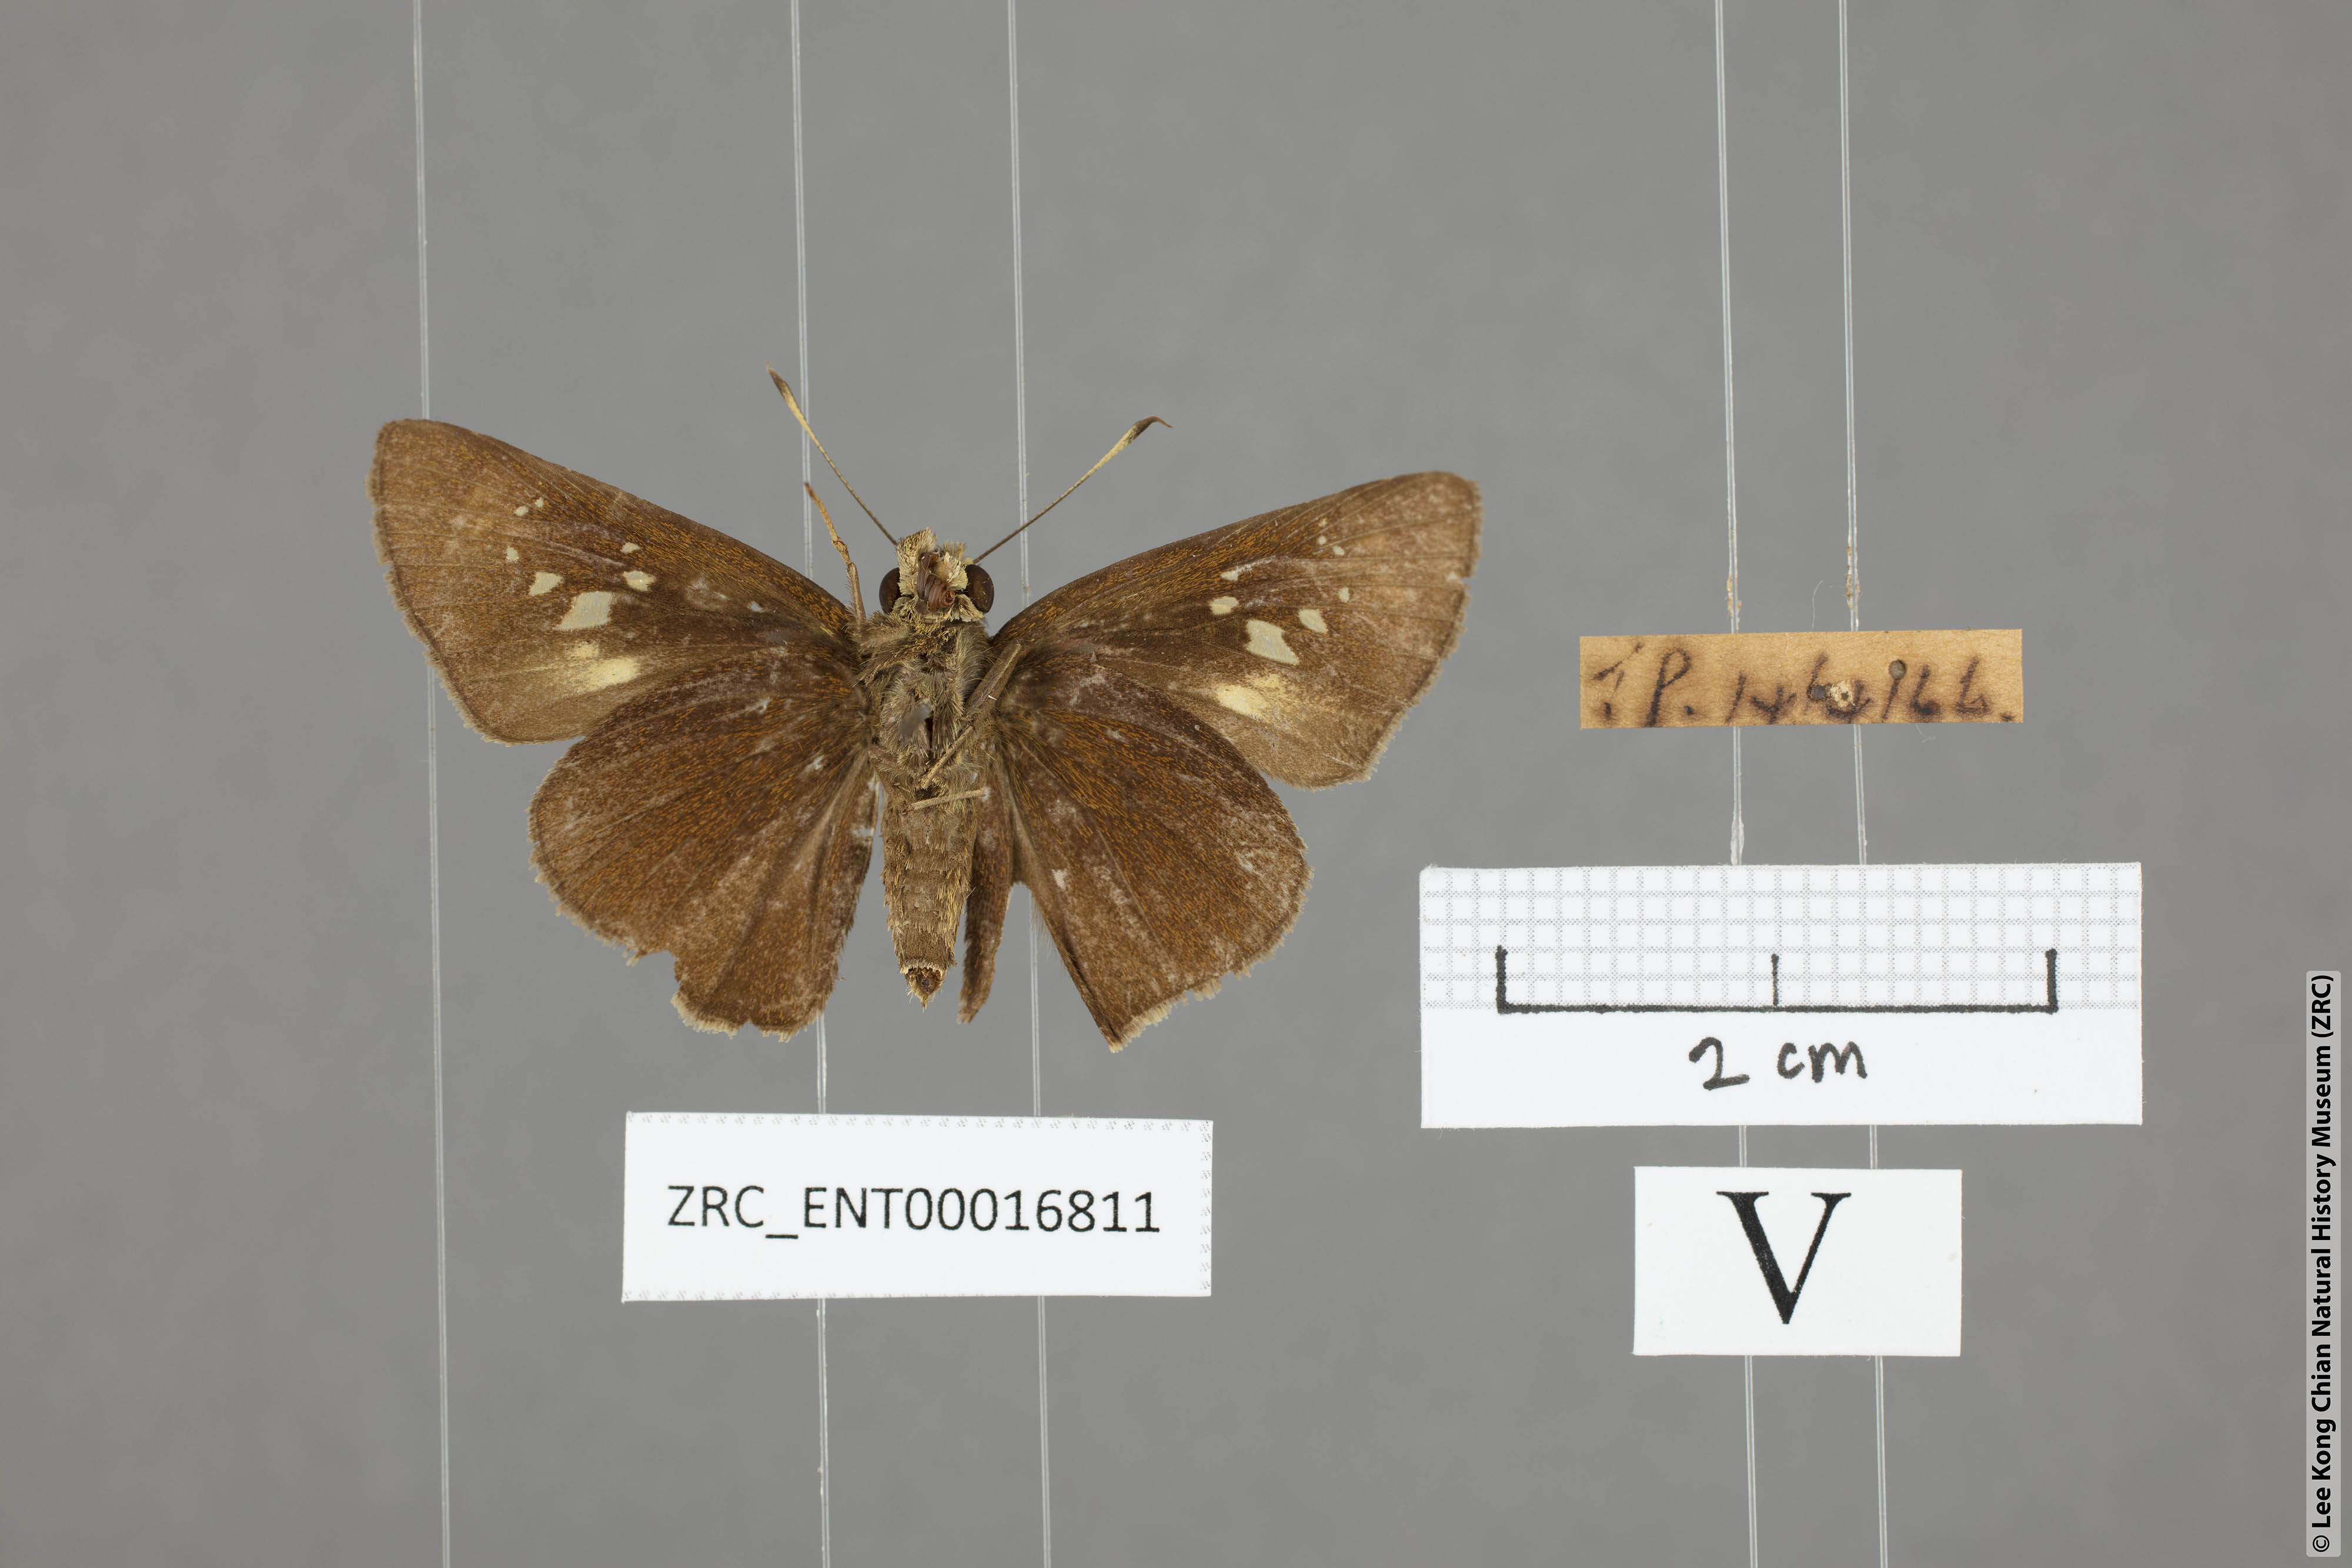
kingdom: Animalia
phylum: Arthropoda
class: Insecta
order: Lepidoptera
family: Hesperiidae
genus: Caltoris
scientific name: Caltoris brunnea
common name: Dark branded swift
